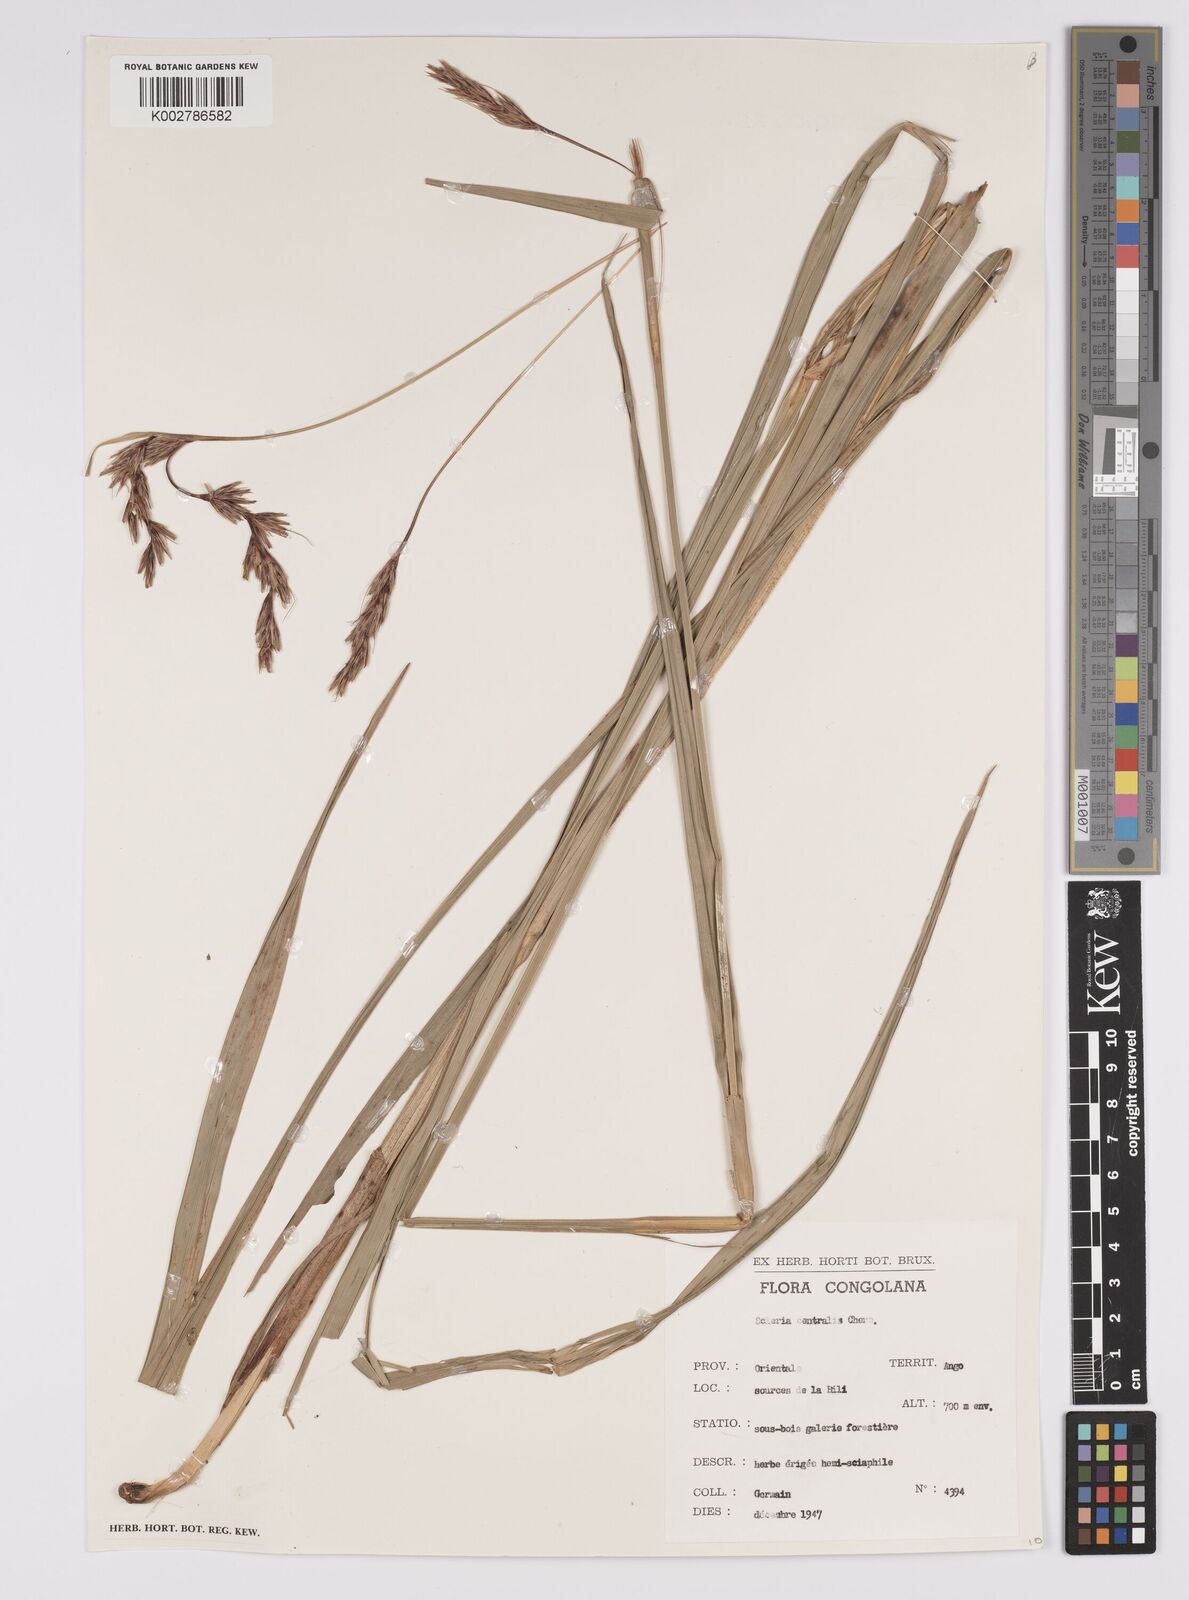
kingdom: Plantae
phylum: Tracheophyta
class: Liliopsida
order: Poales
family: Cyperaceae
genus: Scleria
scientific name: Scleria melanomphala
